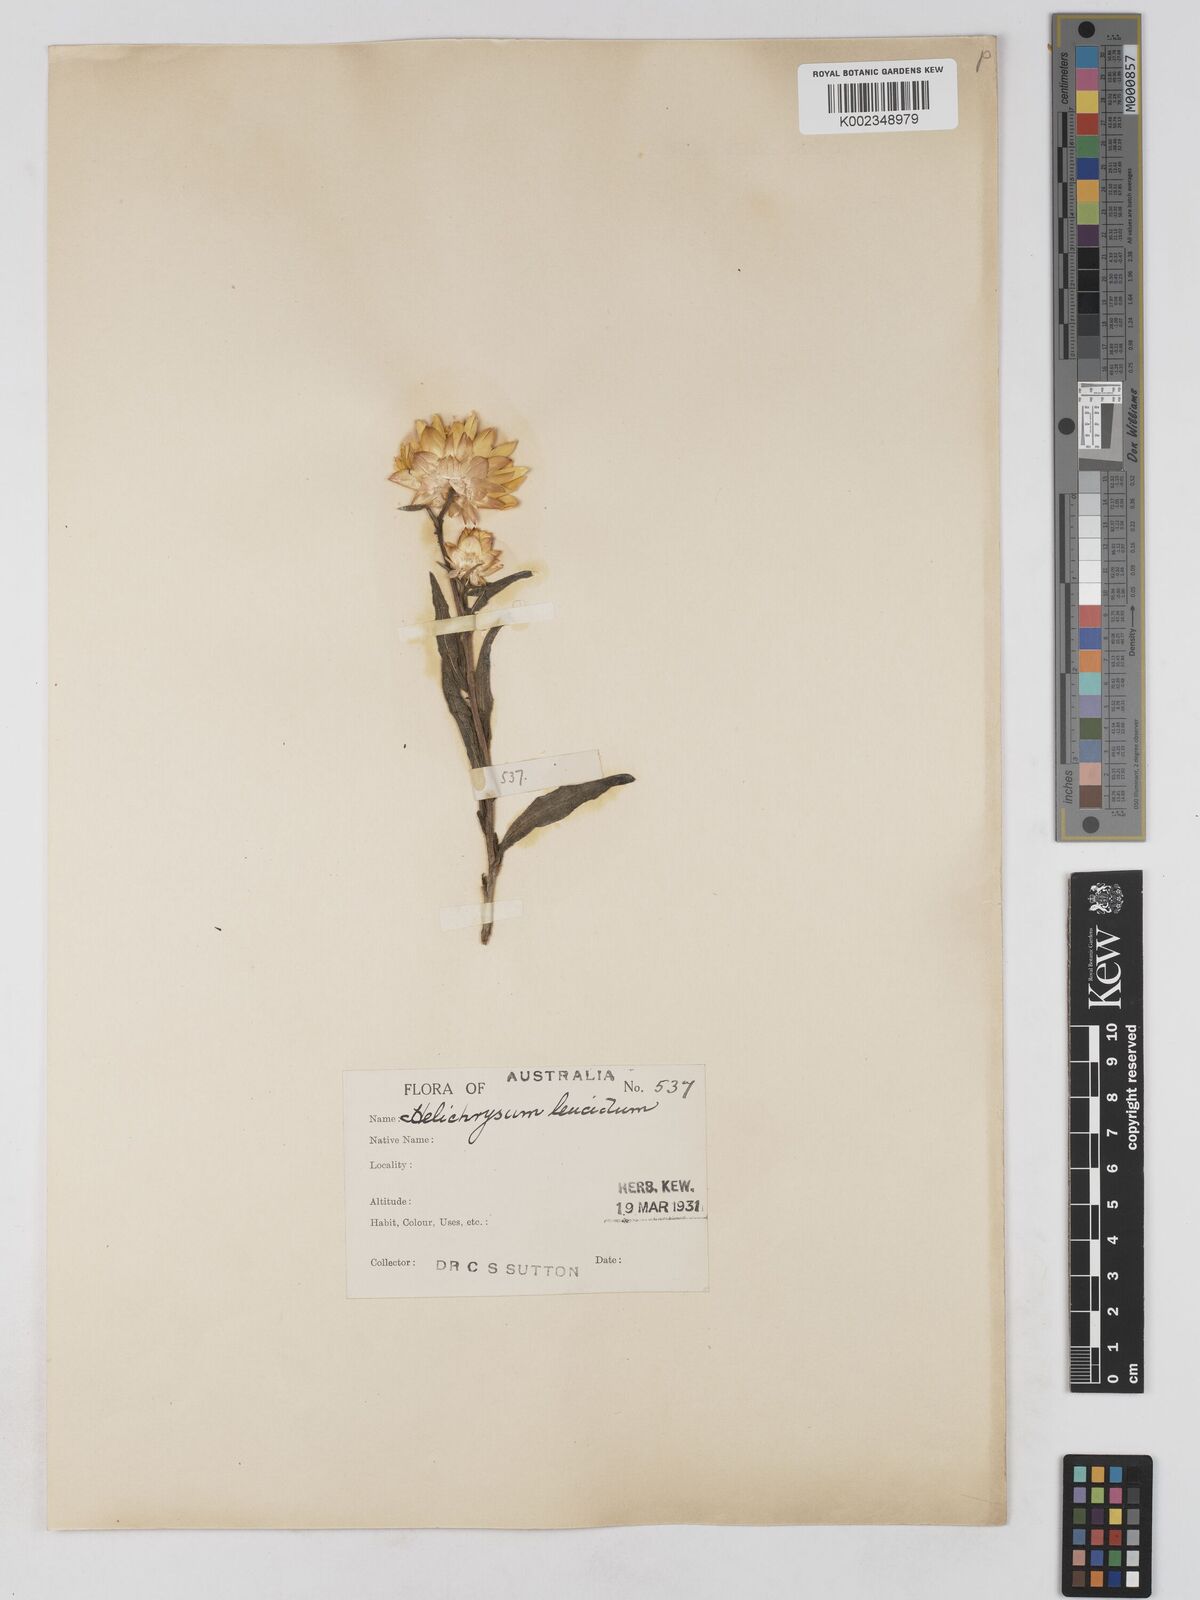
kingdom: Plantae
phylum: Tracheophyta
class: Magnoliopsida
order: Asterales
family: Asteraceae
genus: Xerochrysum
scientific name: Xerochrysum bracteatum
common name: Bracted strawflower
